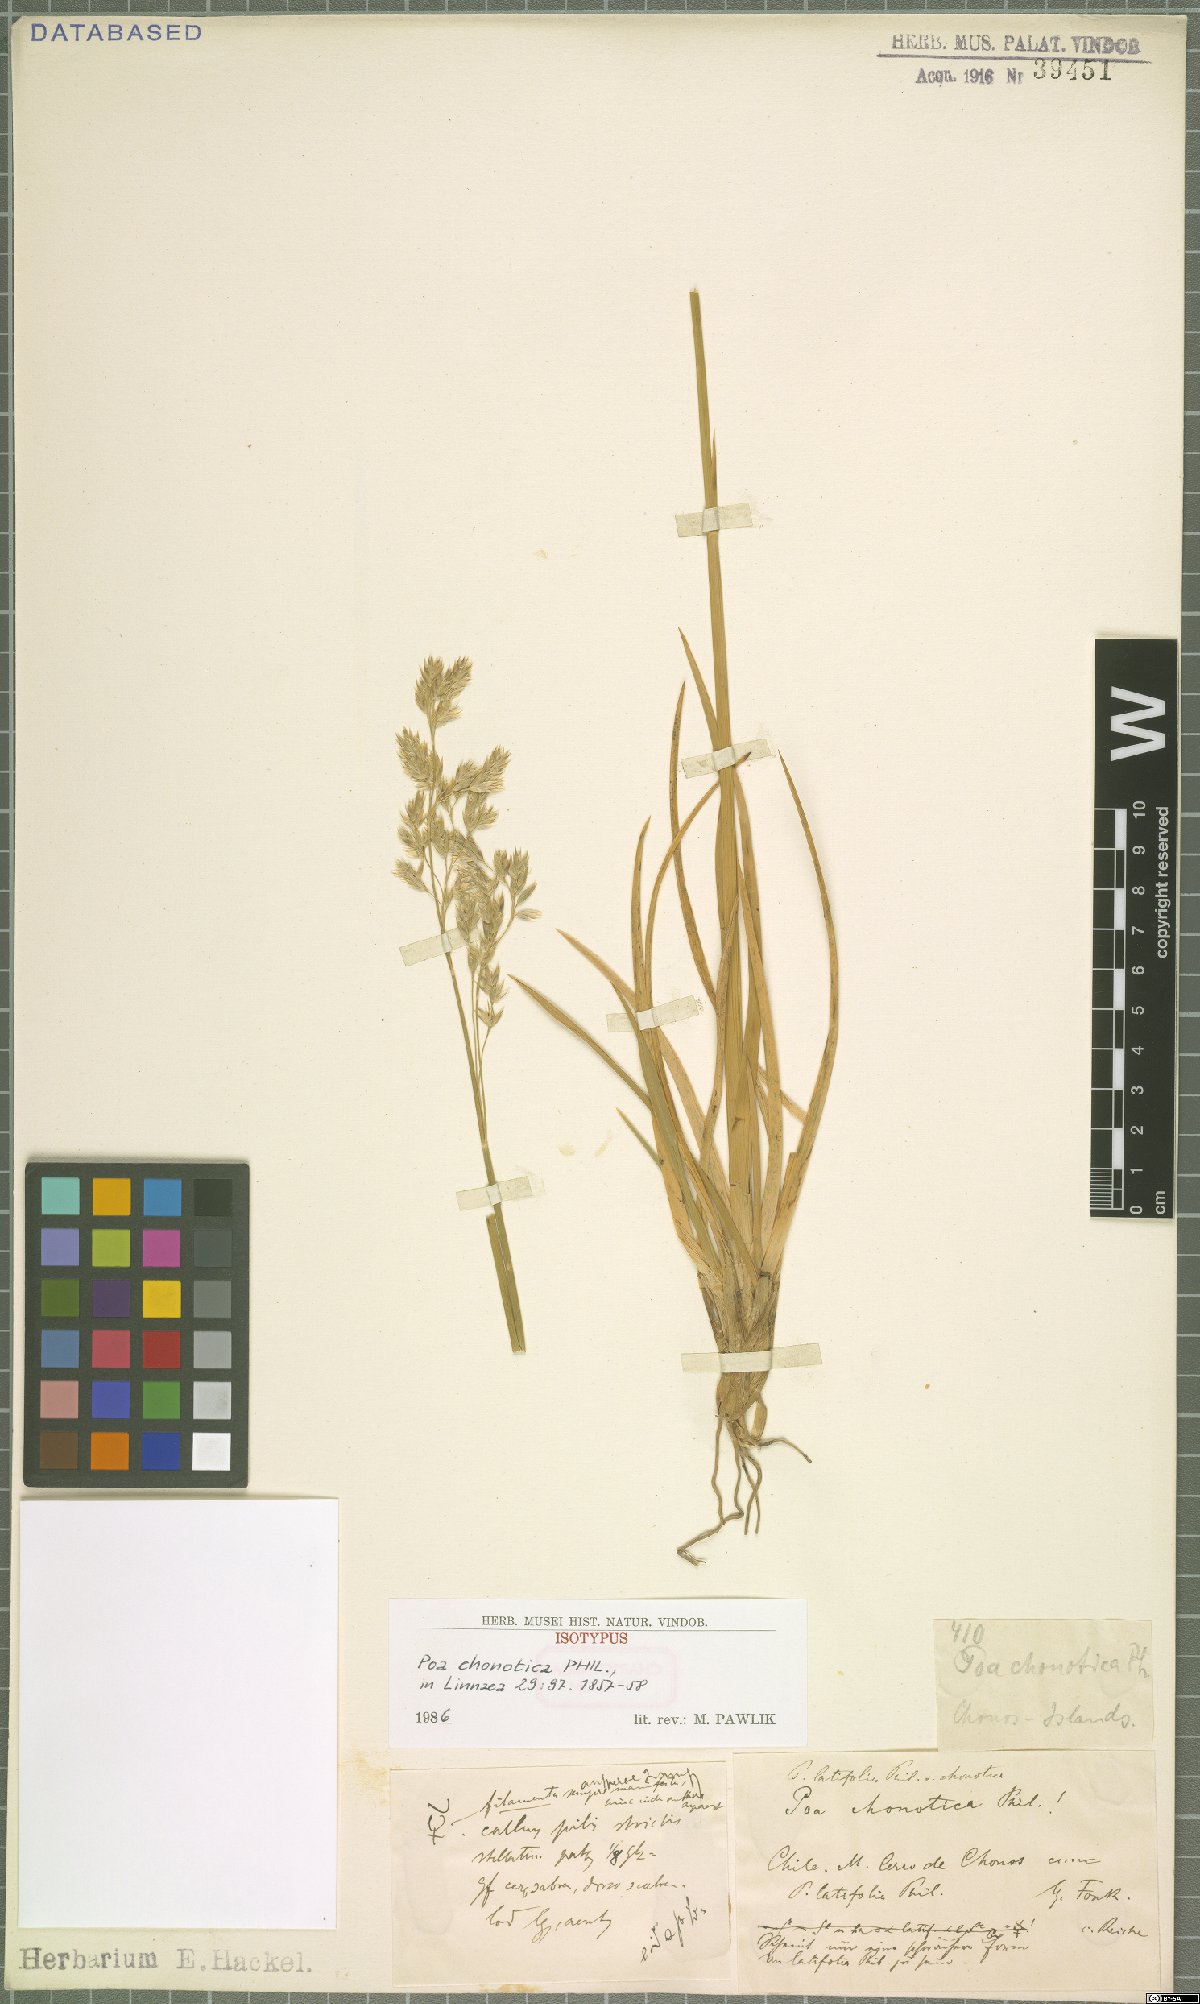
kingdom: Plantae
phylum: Tracheophyta
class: Liliopsida
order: Poales
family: Poaceae
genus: Nicoraepoa
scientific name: Nicoraepoa chonotica
